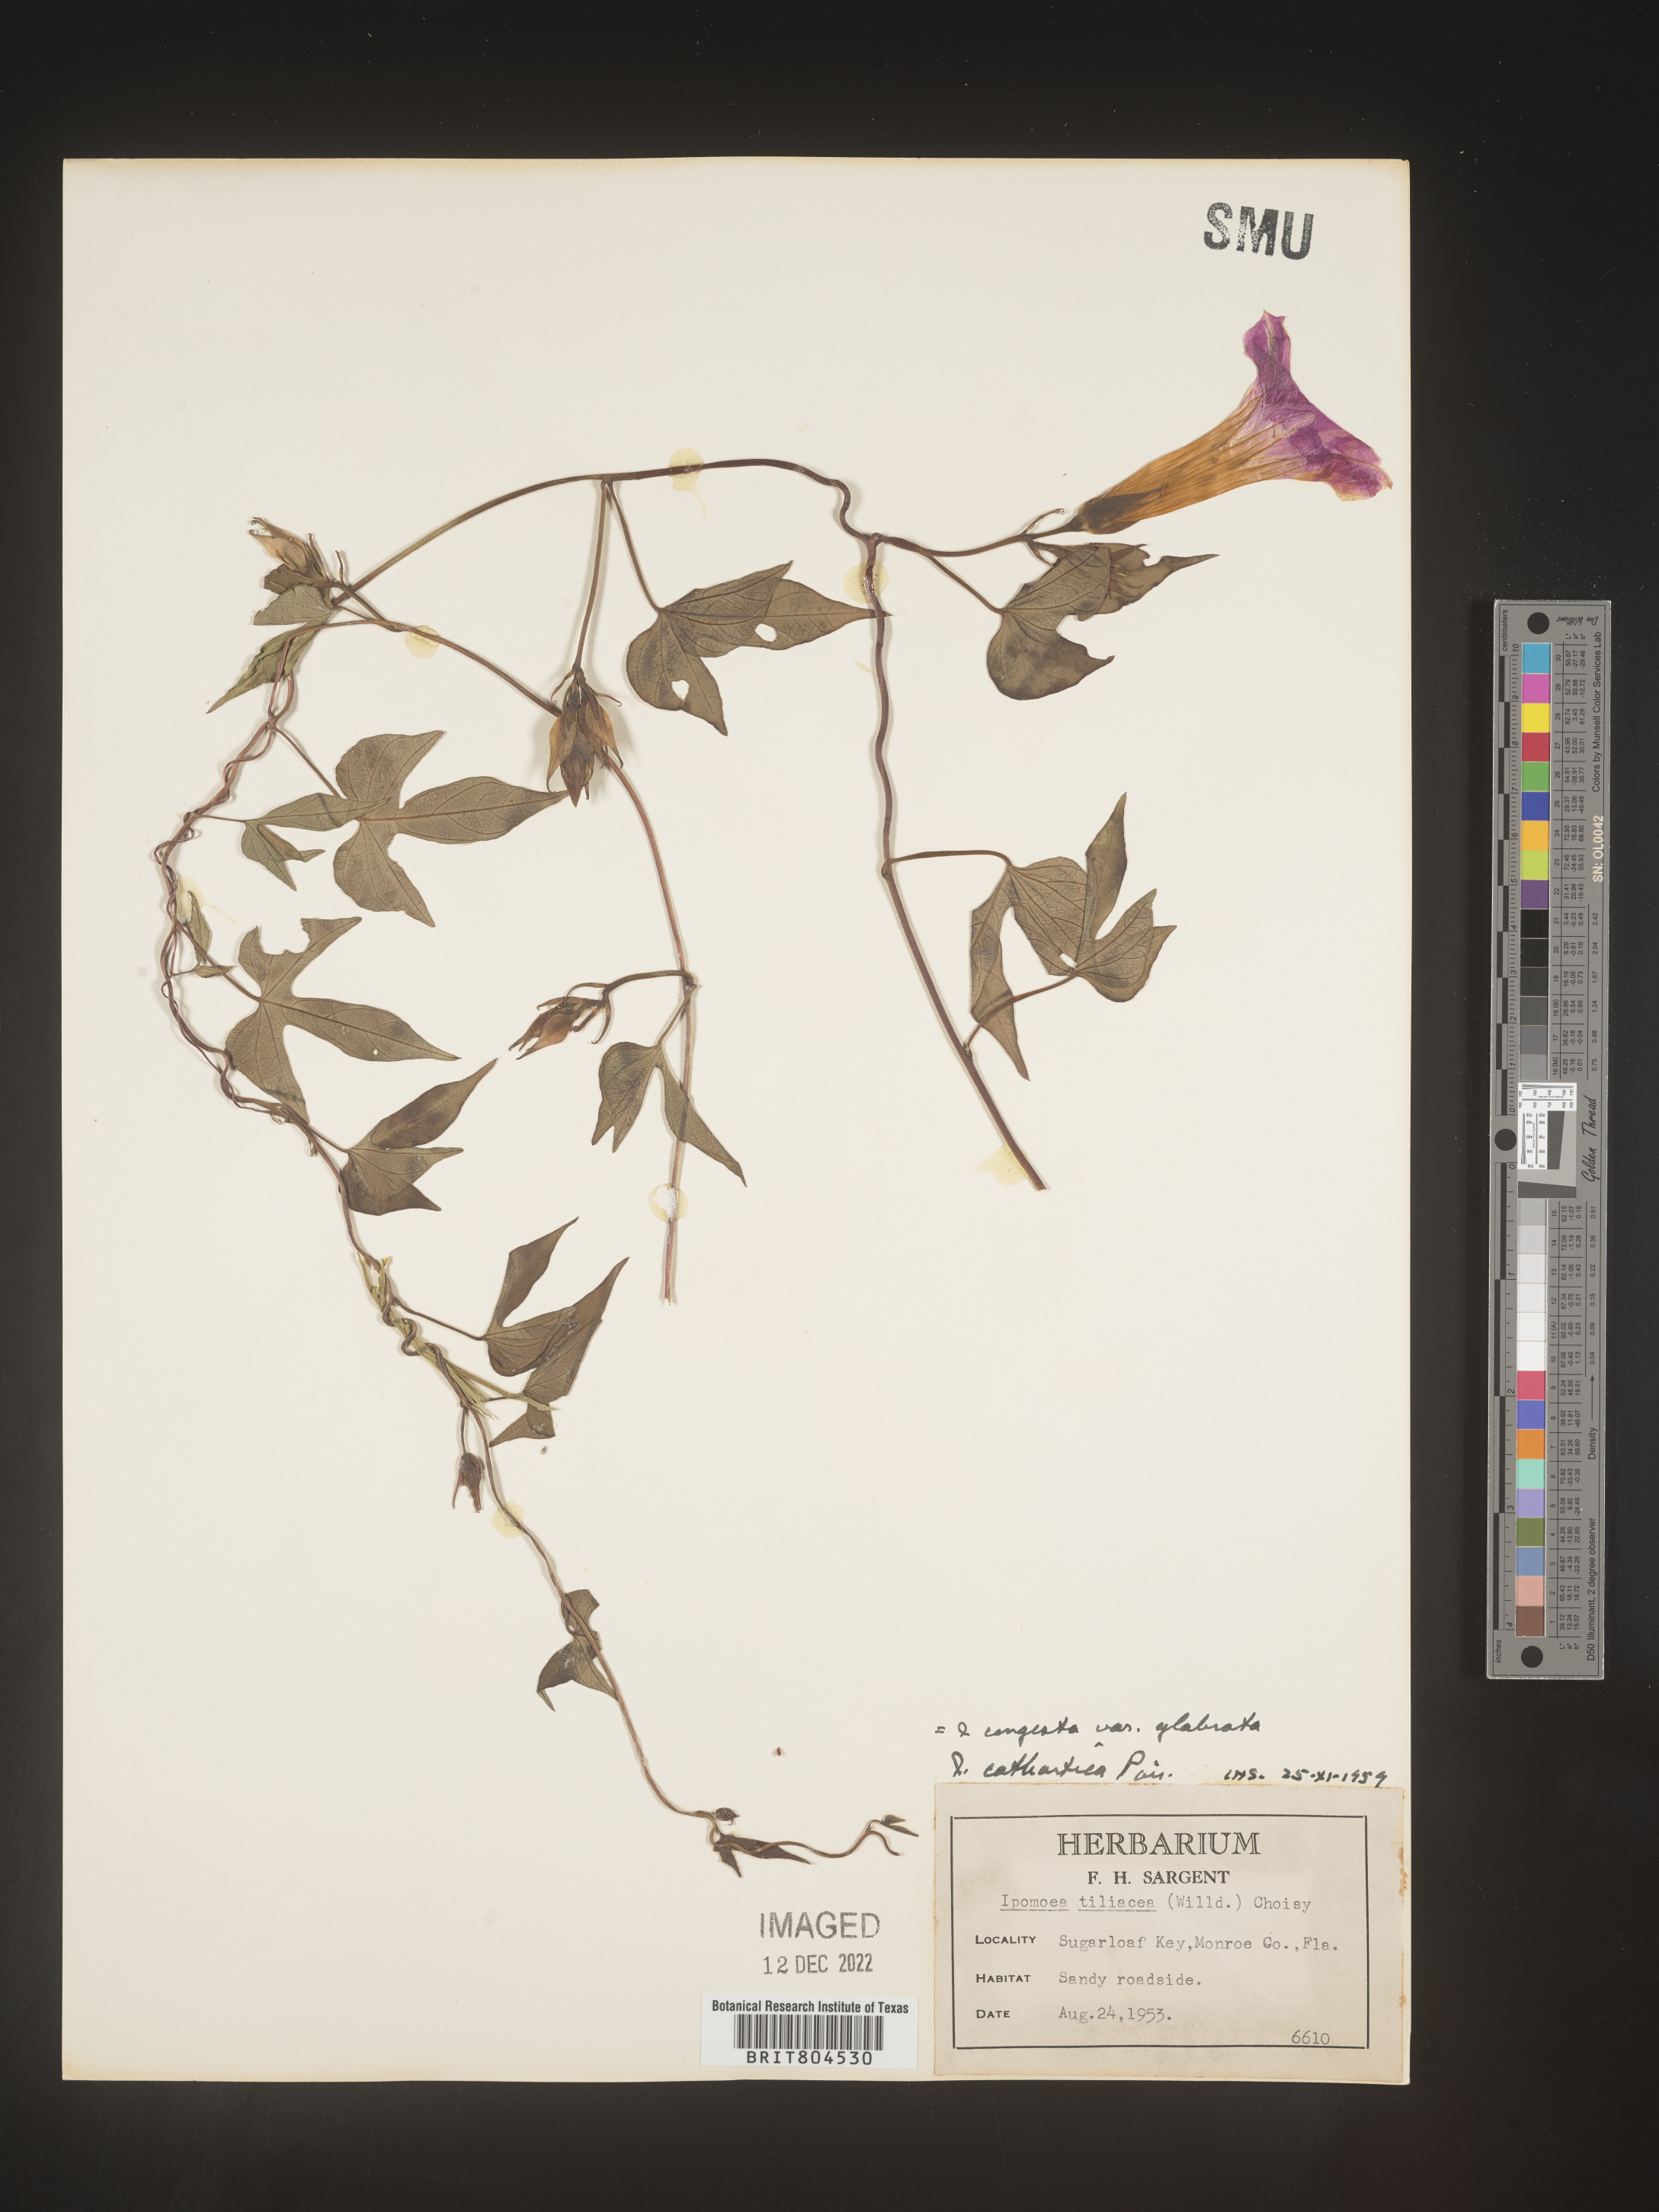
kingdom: Plantae
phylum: Tracheophyta
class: Magnoliopsida
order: Solanales
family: Convolvulaceae
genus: Ipomoea
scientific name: Ipomoea coccinea
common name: Red morning-glory
